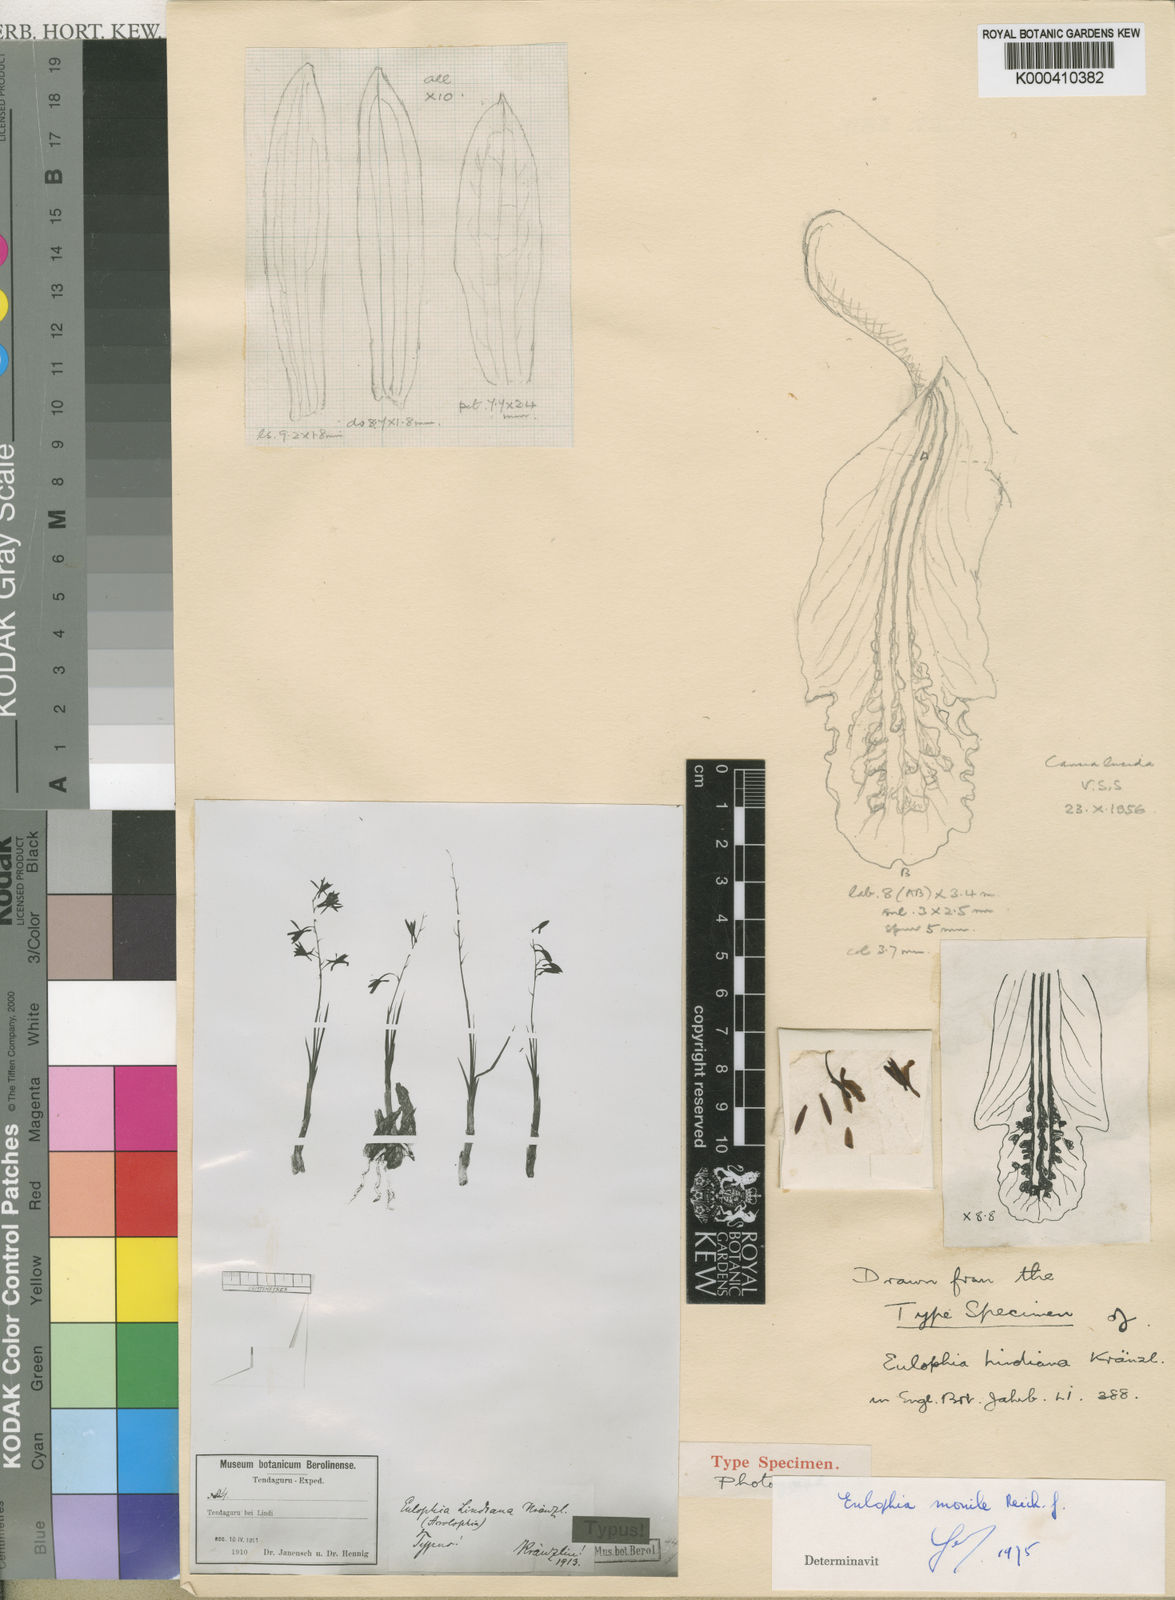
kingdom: Plantae
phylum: Tracheophyta
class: Liliopsida
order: Asparagales
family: Orchidaceae
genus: Eulophia
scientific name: Eulophia penduliflora
